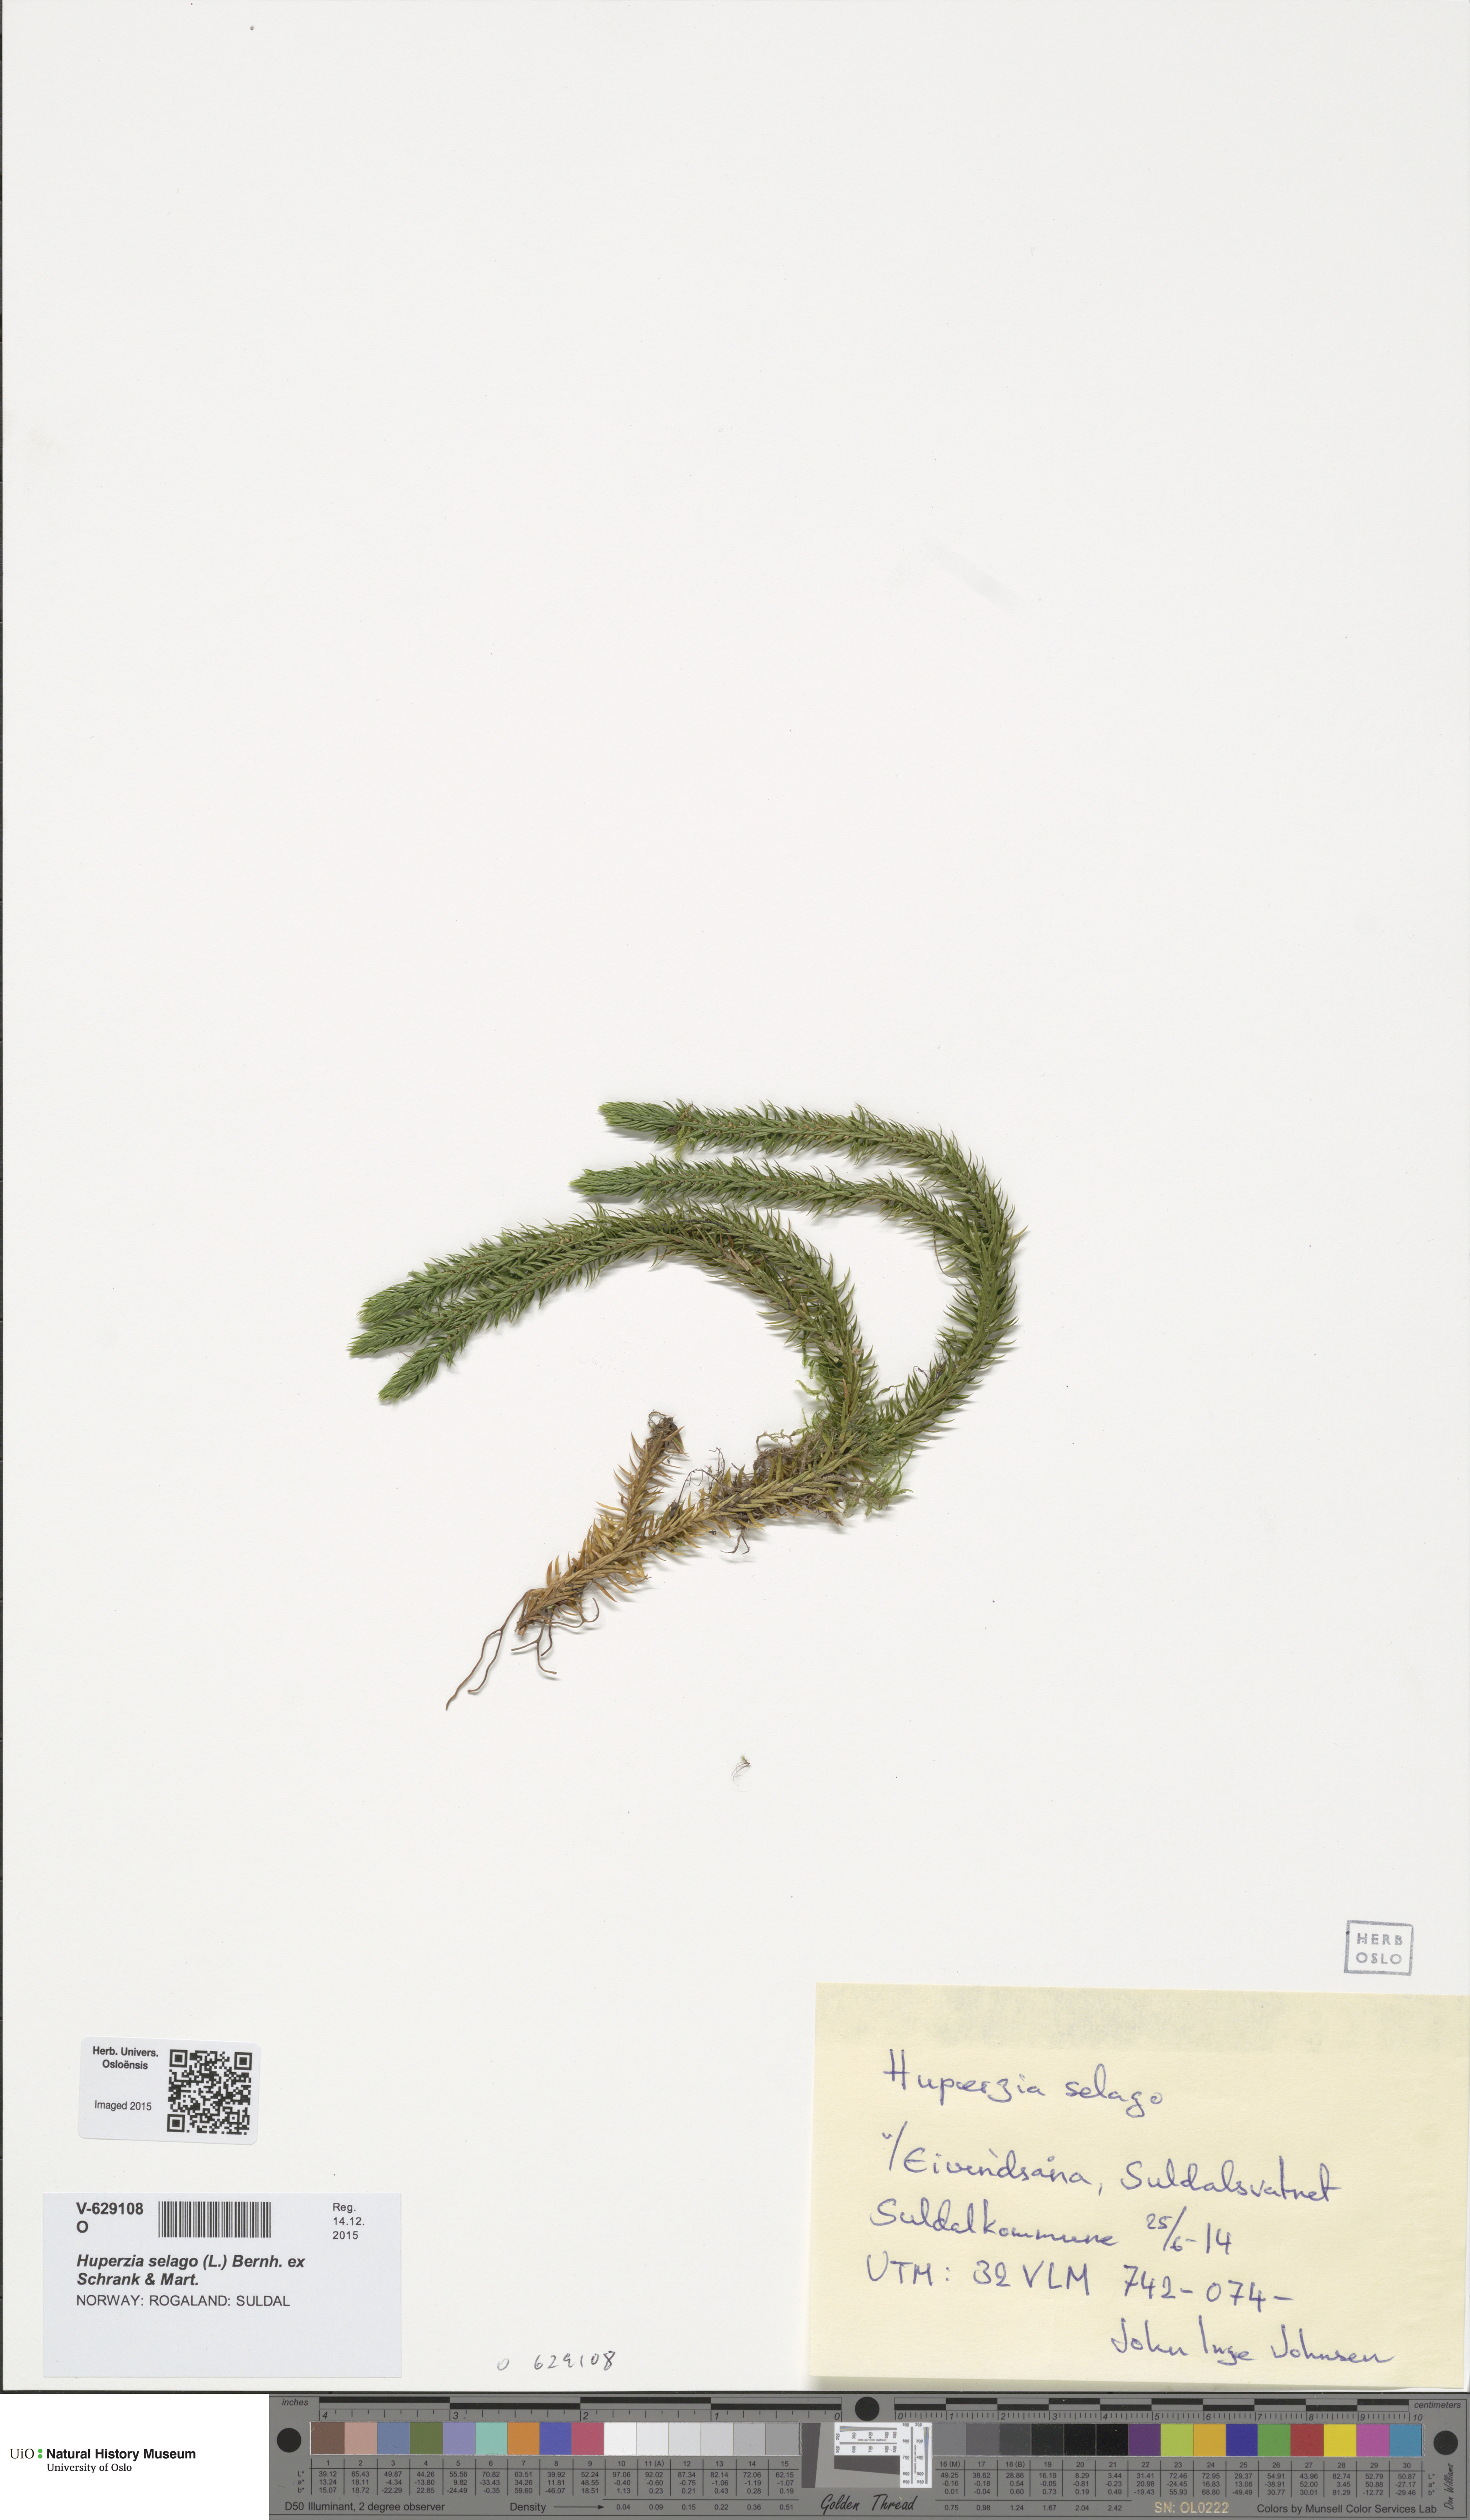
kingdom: Plantae
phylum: Tracheophyta
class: Lycopodiopsida
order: Lycopodiales
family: Lycopodiaceae
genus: Huperzia
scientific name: Huperzia selago
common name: Northern firmoss
